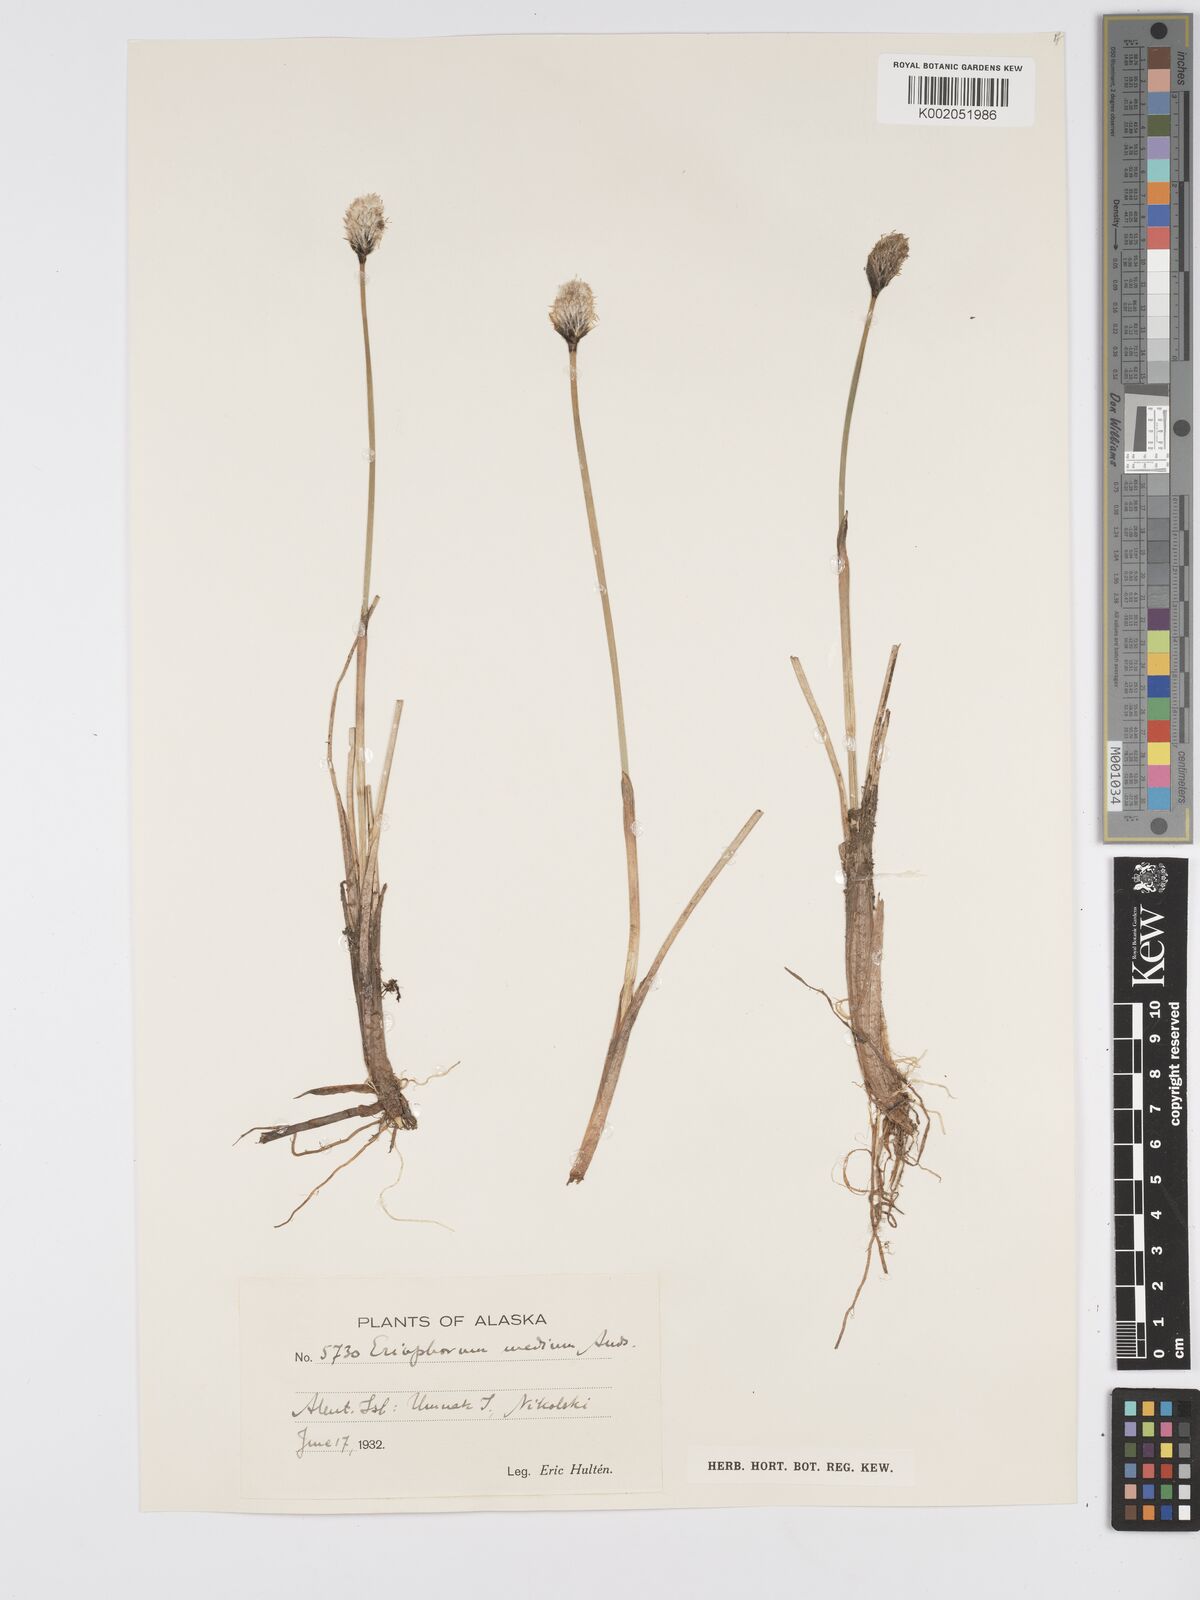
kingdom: Plantae
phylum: Tracheophyta
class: Liliopsida
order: Poales
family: Cyperaceae
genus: Eriophorum
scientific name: Eriophorum callitrix
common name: Arctic cottongrass
